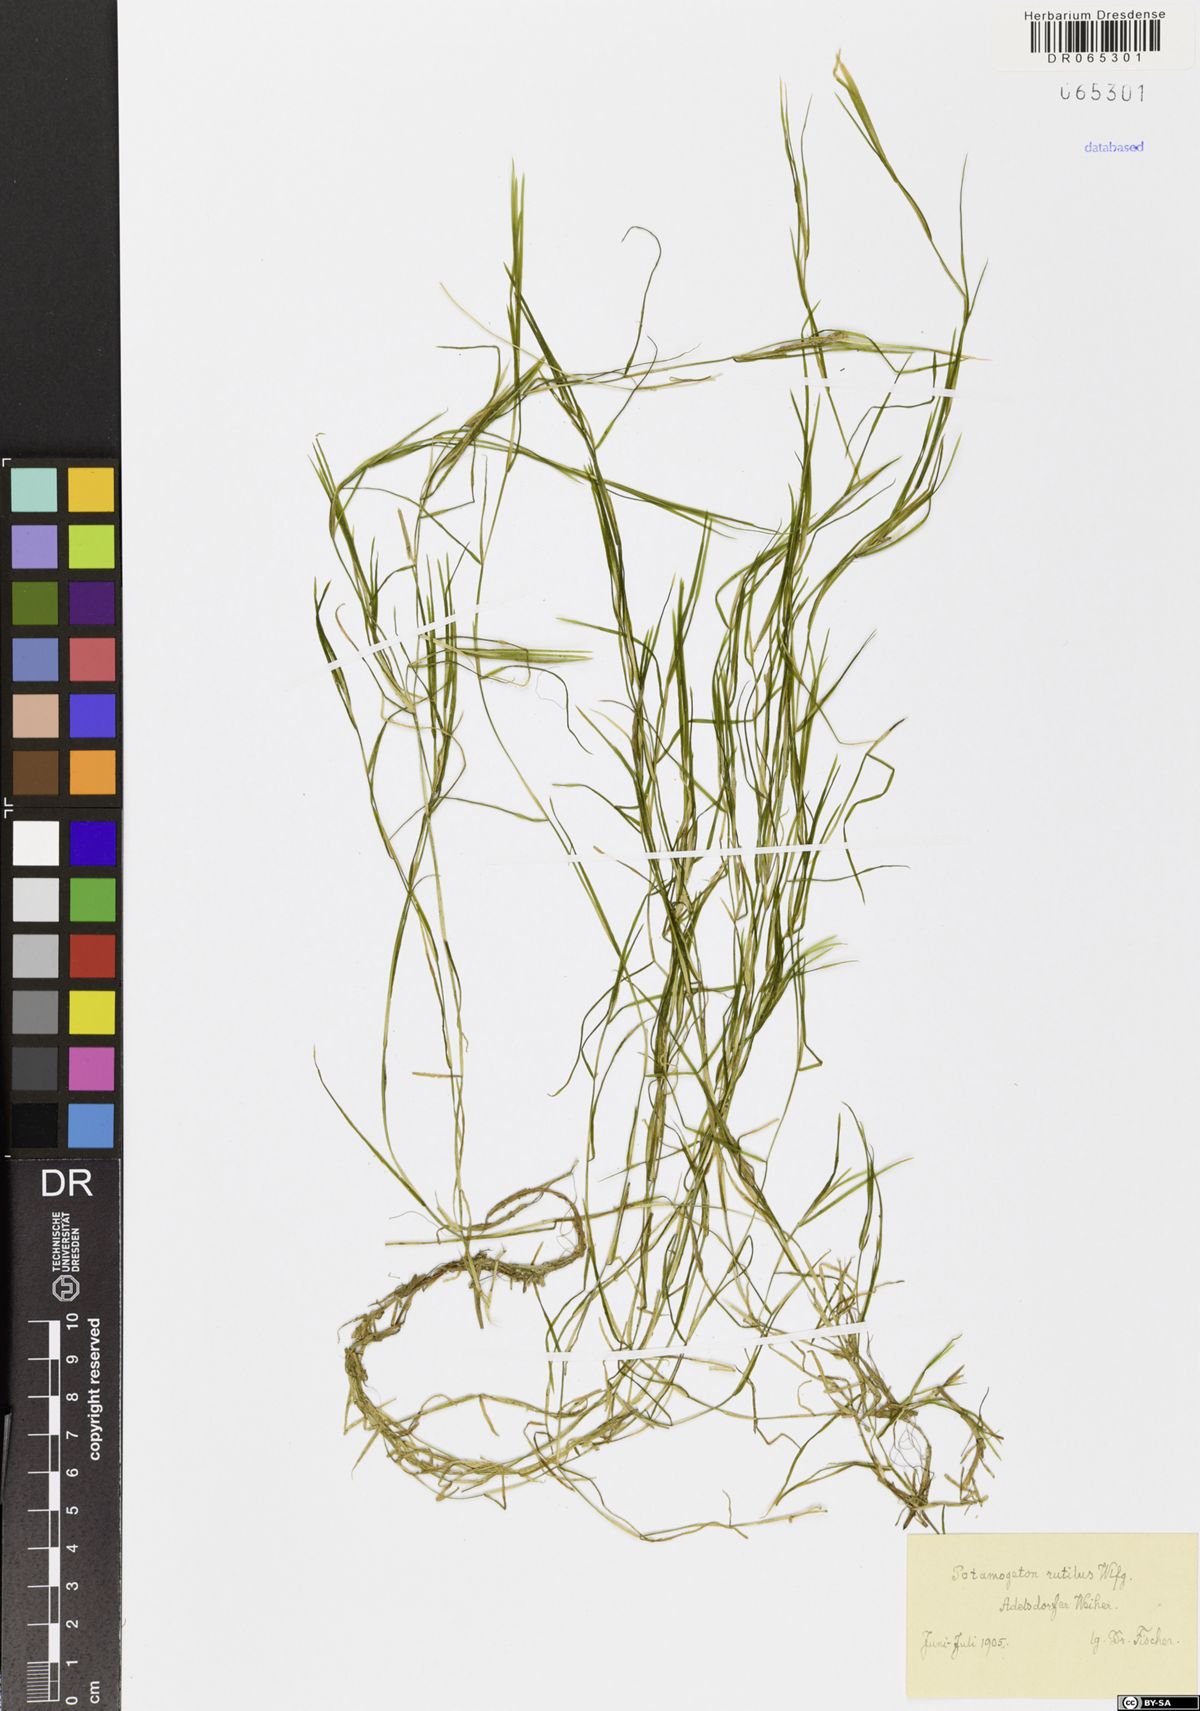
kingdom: Plantae
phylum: Tracheophyta
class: Liliopsida
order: Alismatales
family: Potamogetonaceae
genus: Potamogeton
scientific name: Potamogeton rutilus
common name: Shetland pondweed
